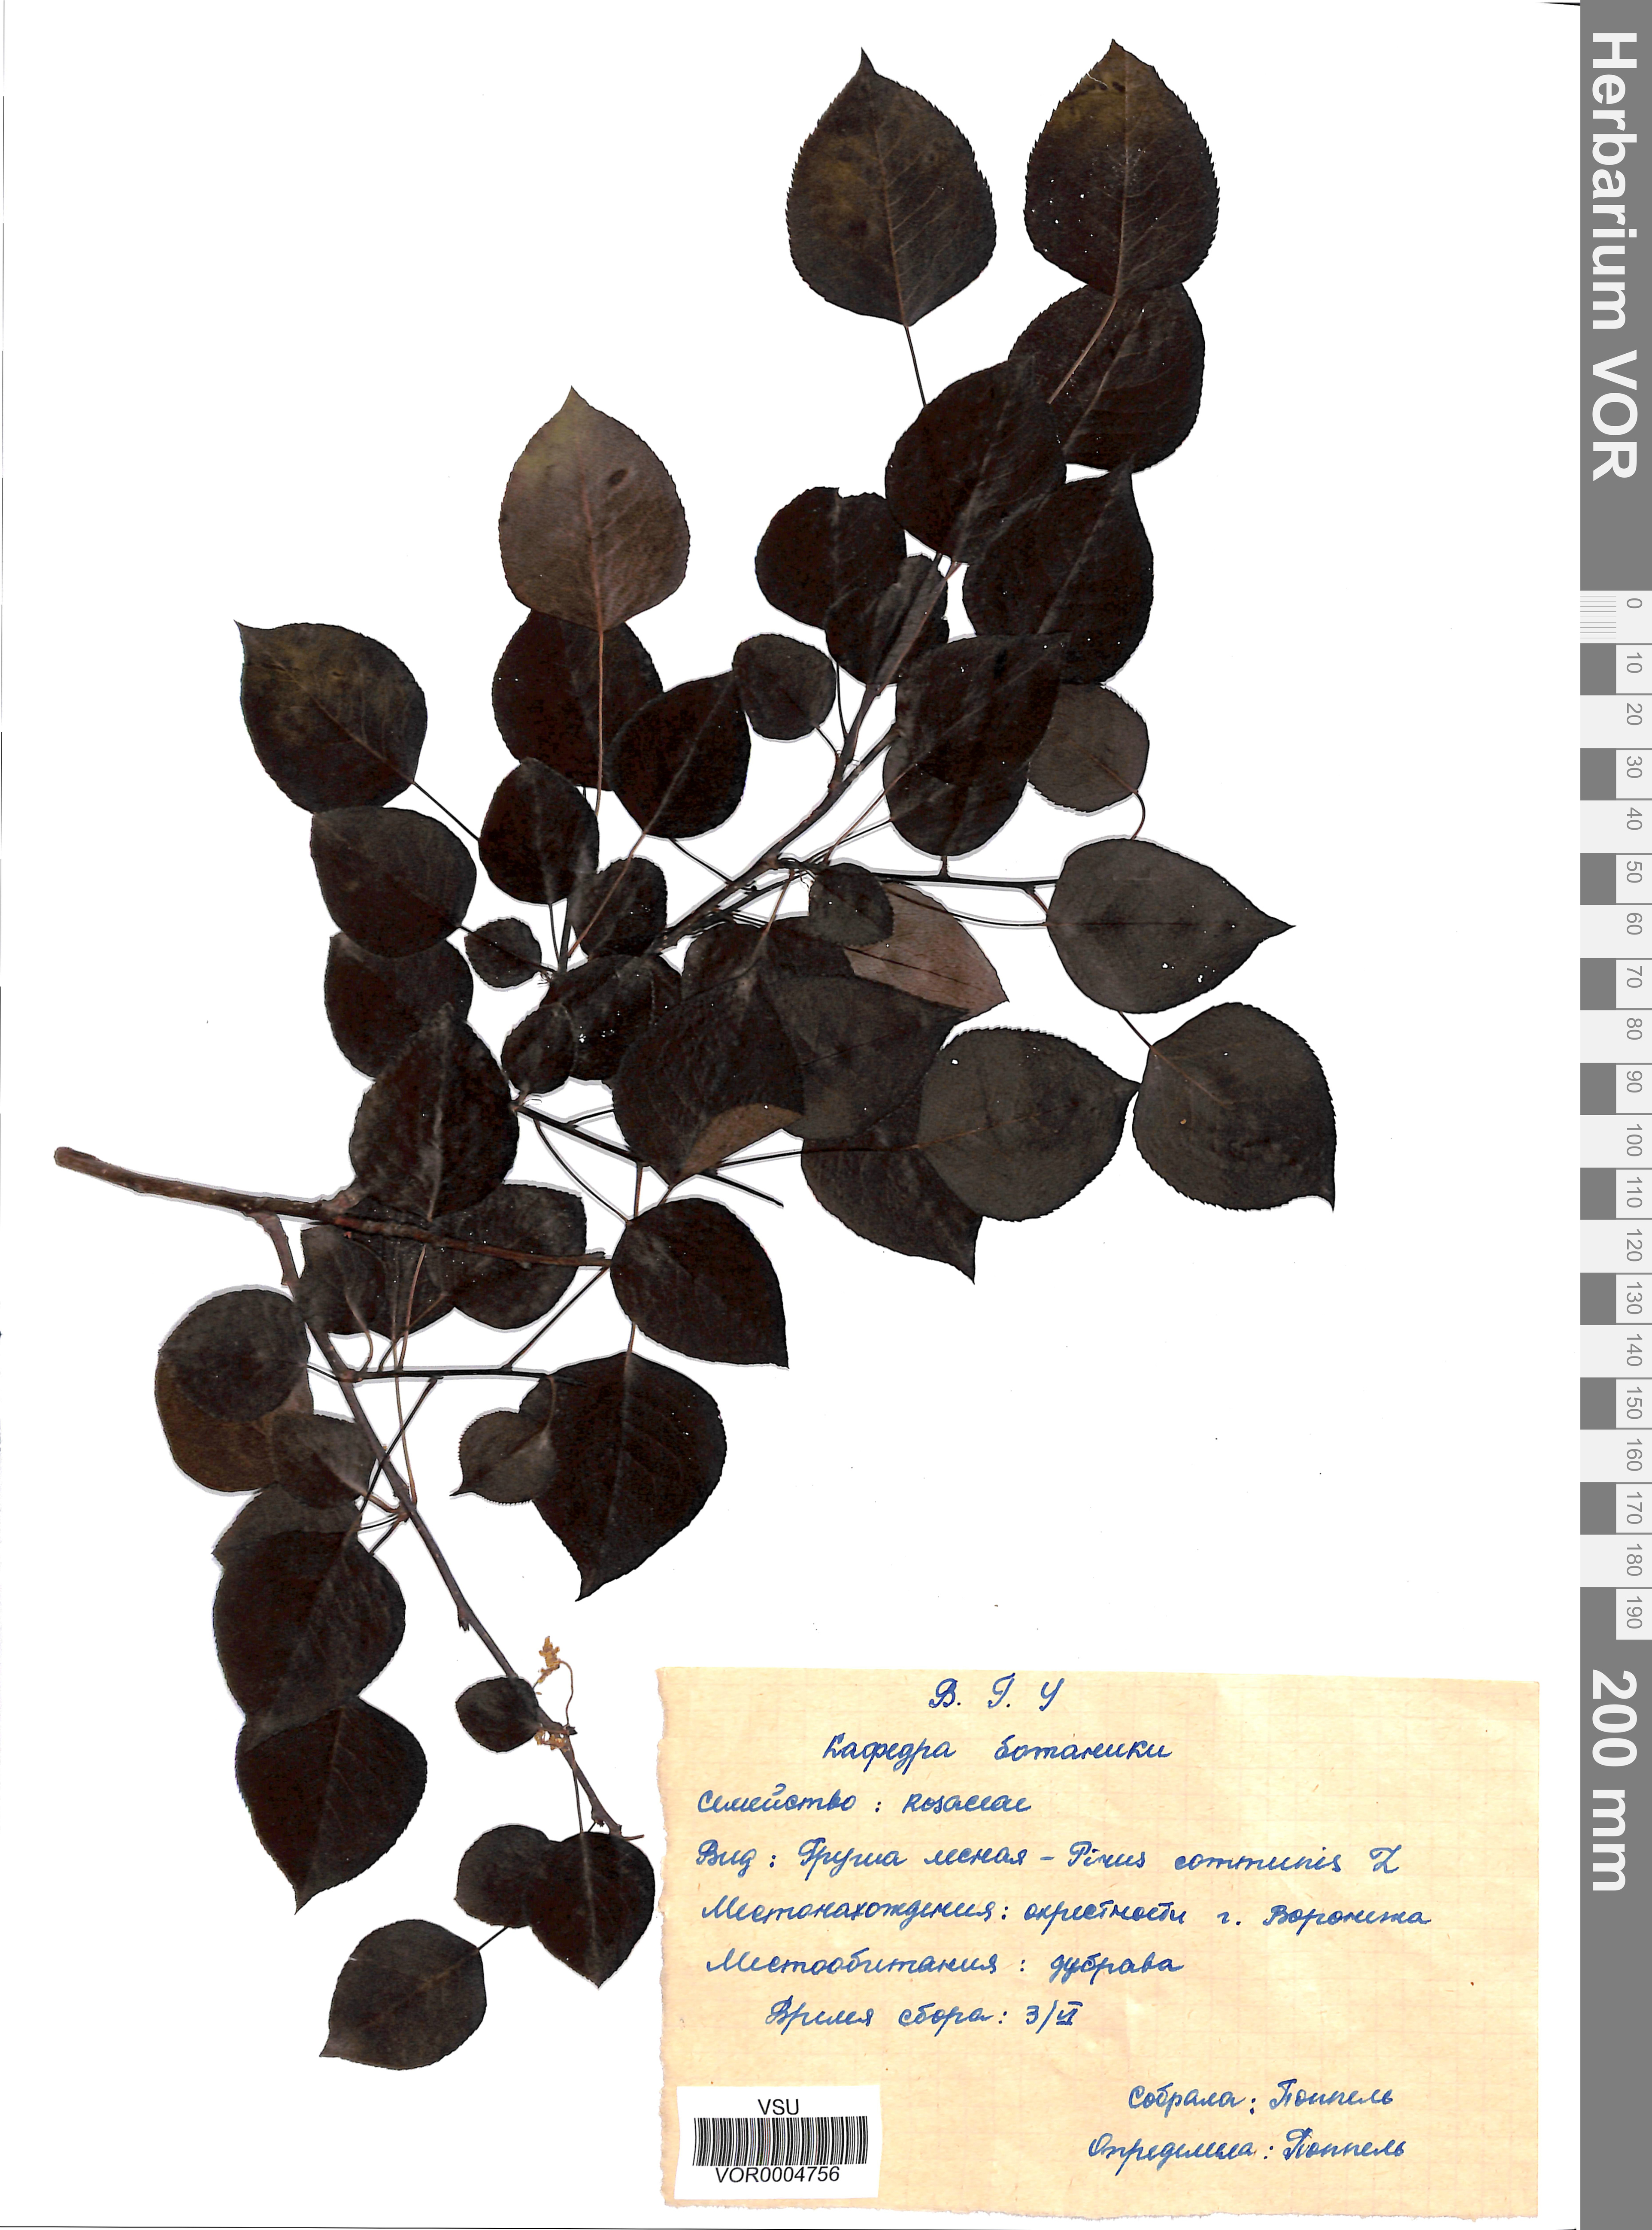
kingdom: Plantae
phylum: Tracheophyta
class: Magnoliopsida
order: Rosales
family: Rosaceae
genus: Pyrus
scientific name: Pyrus communis
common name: Pear
